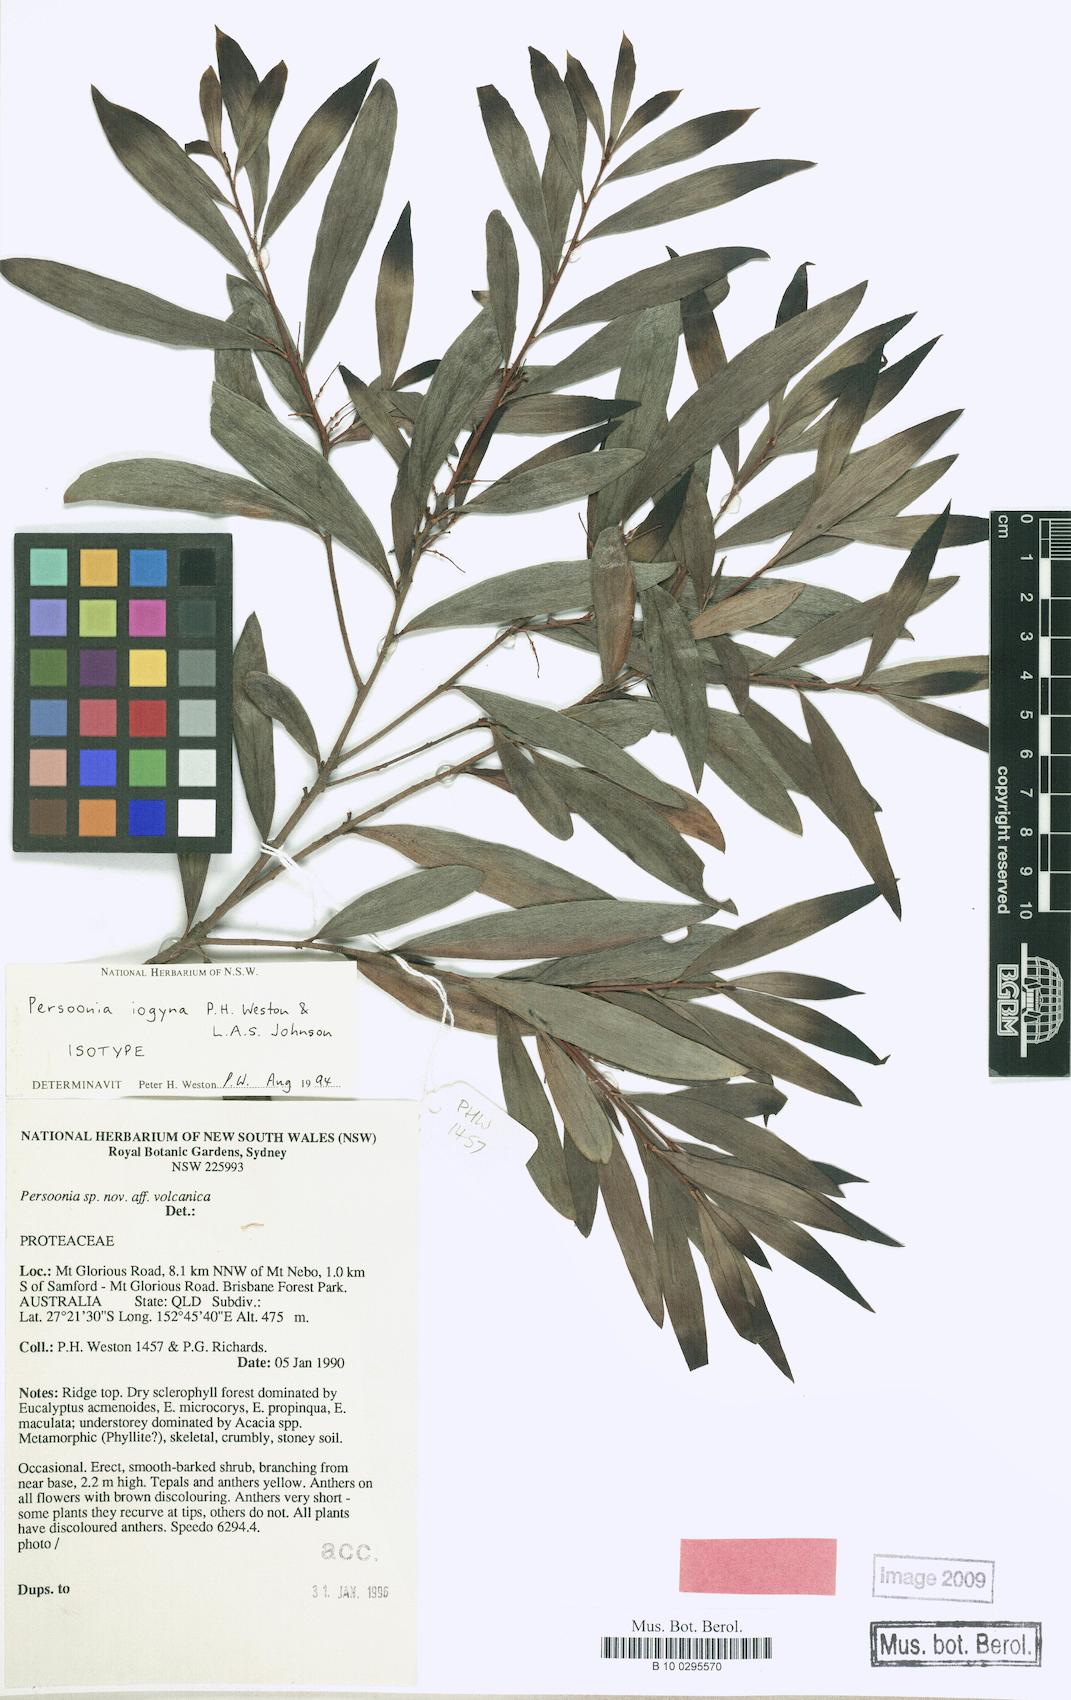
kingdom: Plantae
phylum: Tracheophyta
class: Magnoliopsida
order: Proteales
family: Proteaceae
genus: Persoonia
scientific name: Persoonia iogyna
